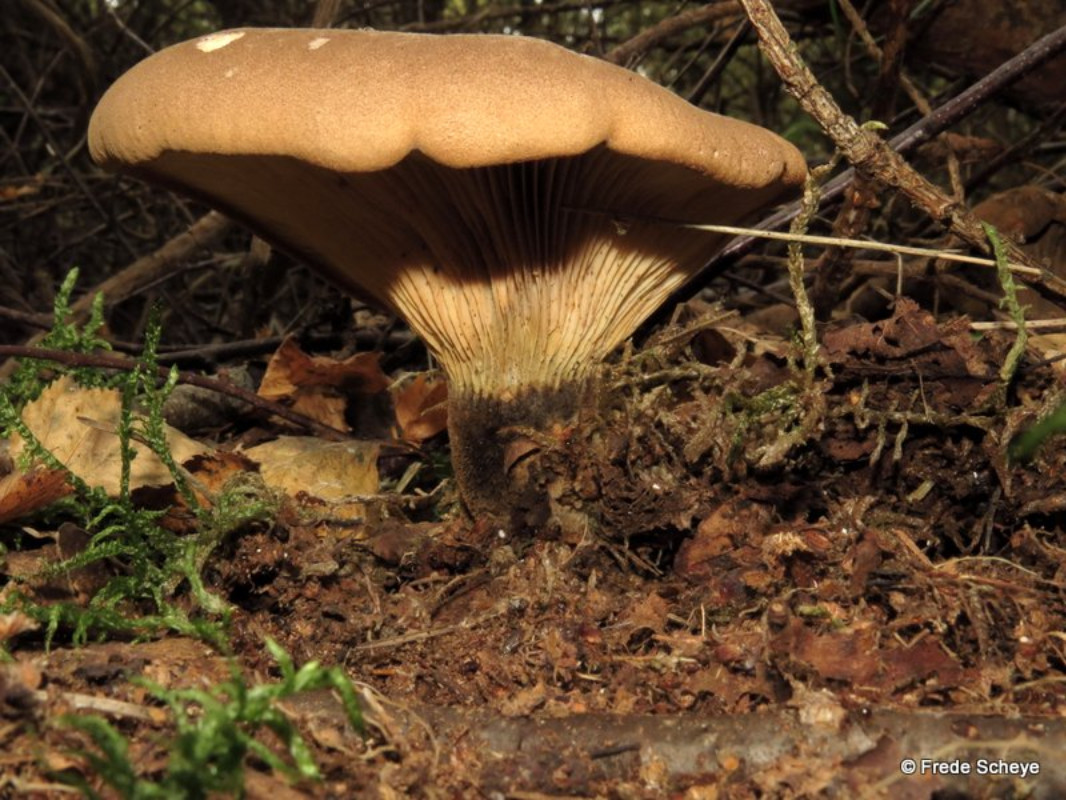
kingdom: Fungi
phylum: Basidiomycota
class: Agaricomycetes
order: Boletales
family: Tapinellaceae
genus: Tapinella
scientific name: Tapinella atrotomentosa
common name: sortfiltet viftesvamp
